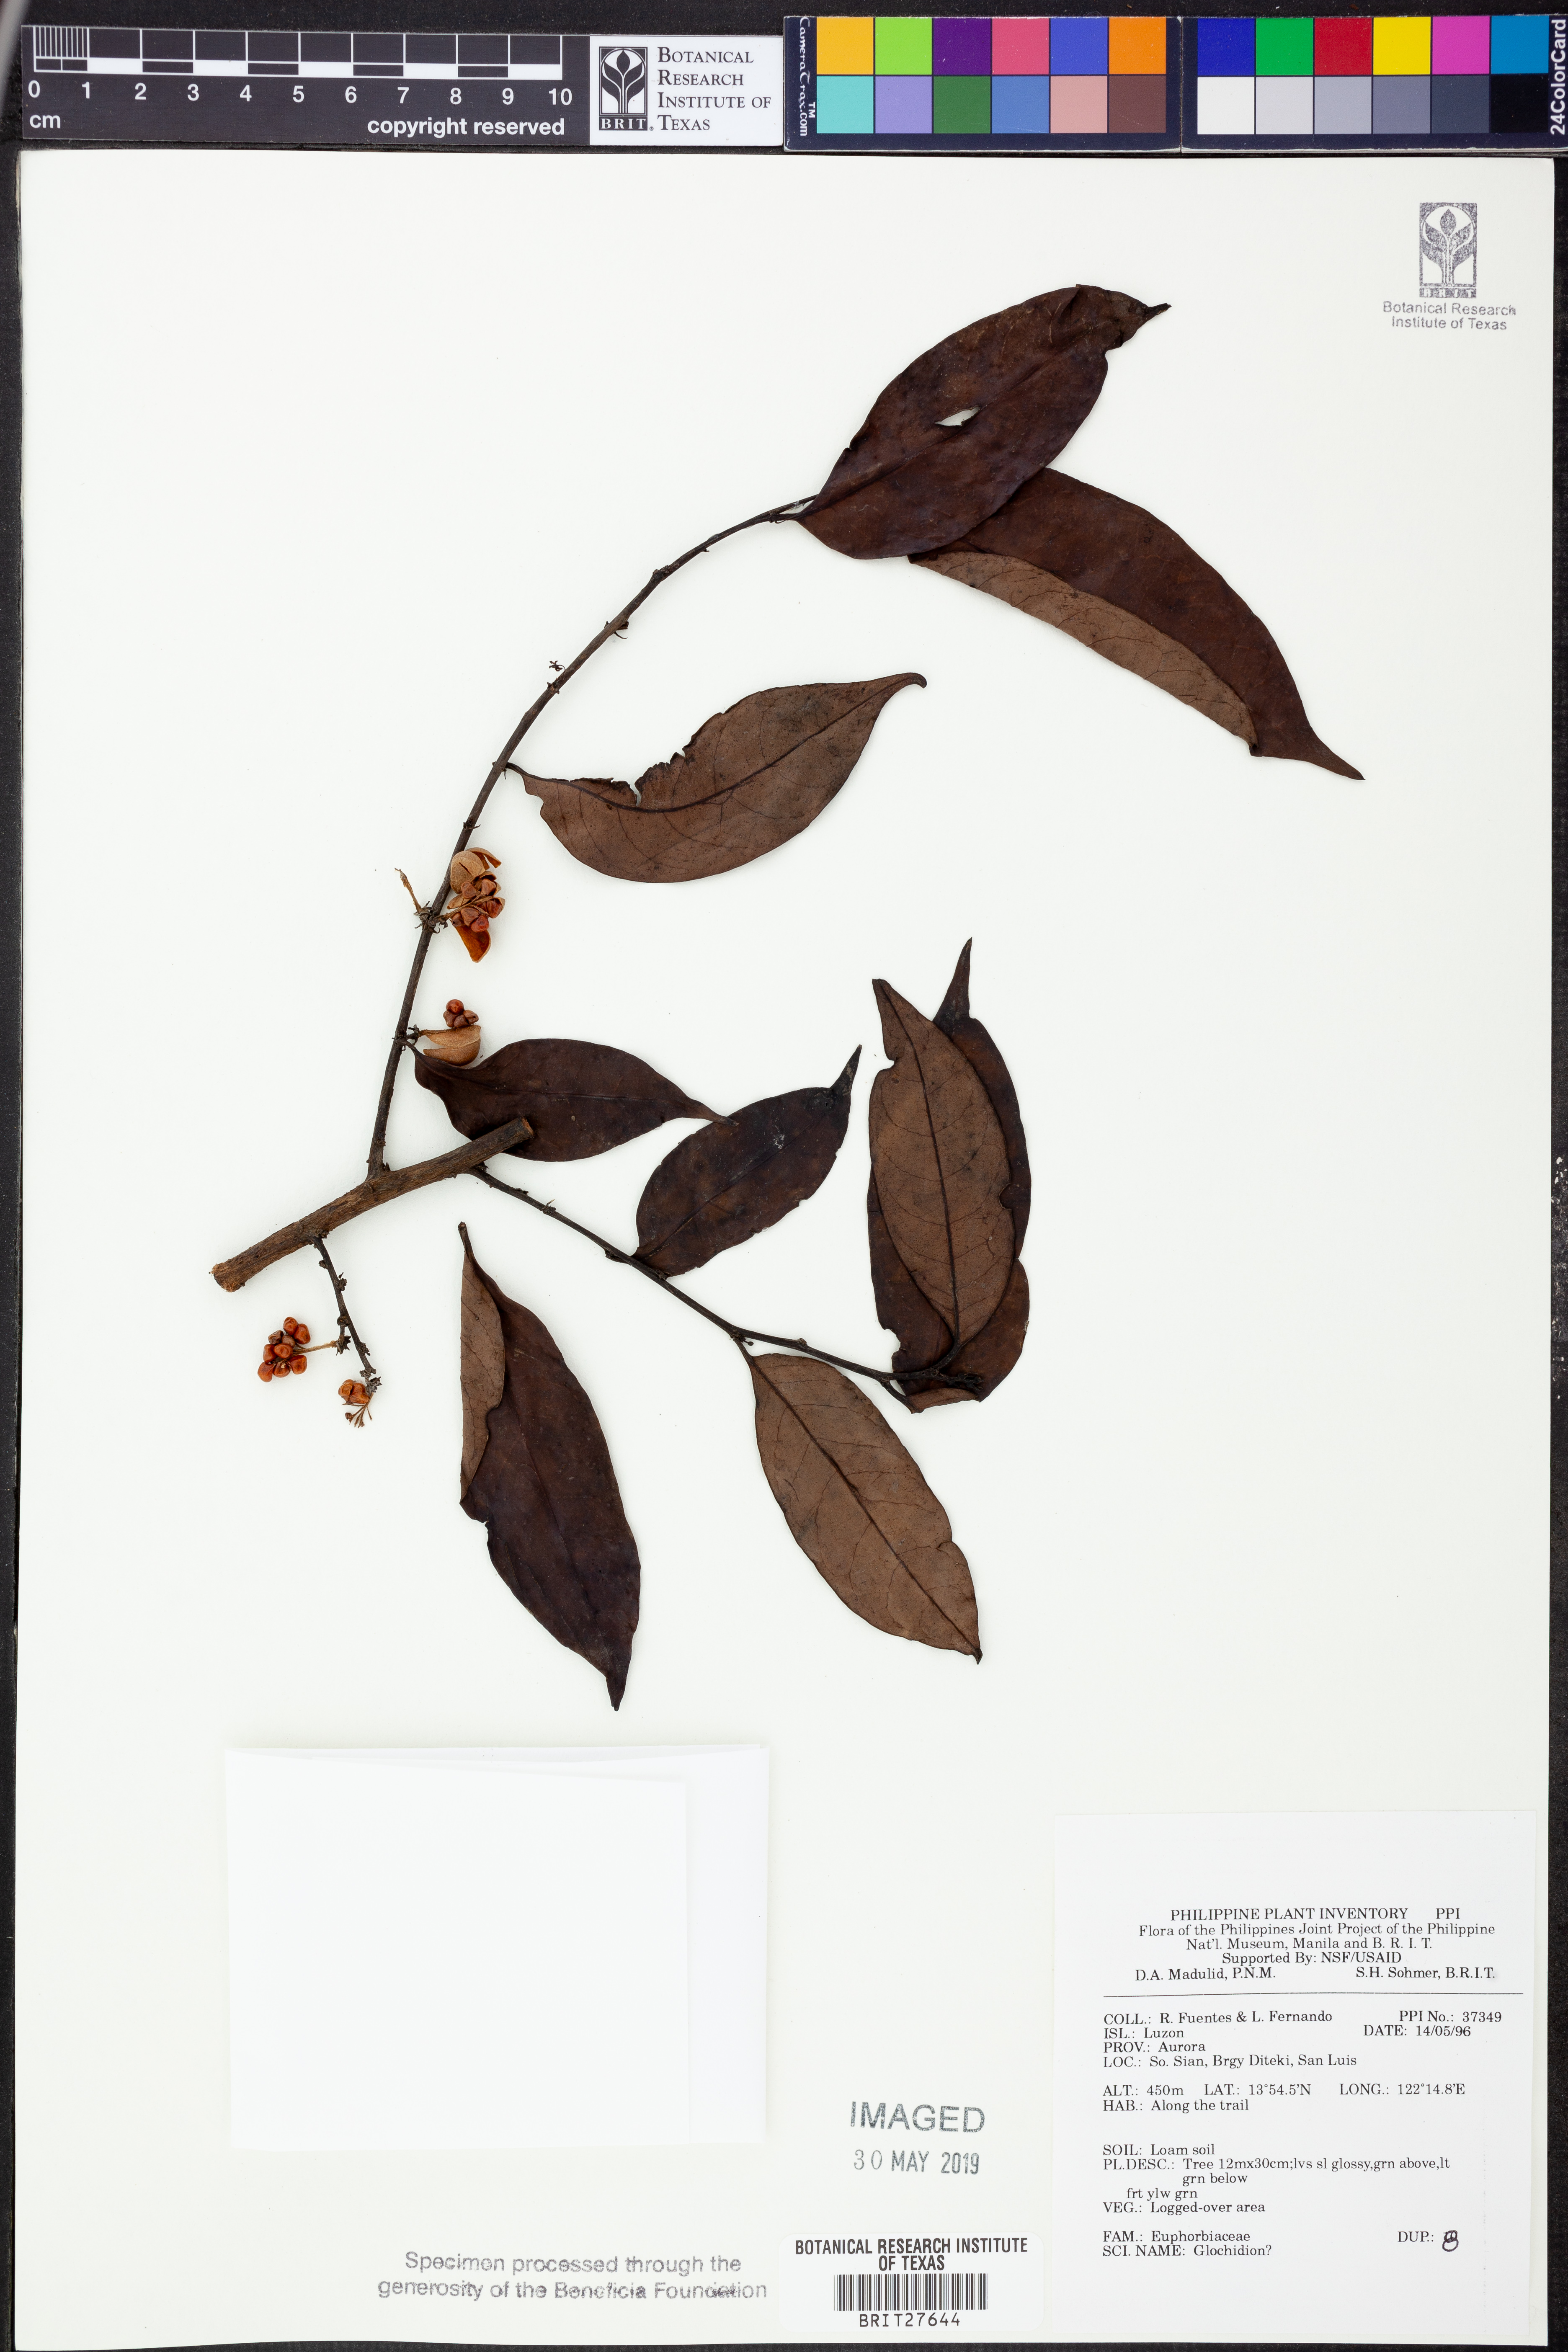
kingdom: Plantae
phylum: Tracheophyta
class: Magnoliopsida
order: Malpighiales
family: Phyllanthaceae
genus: Glochidion
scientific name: Glochidion
